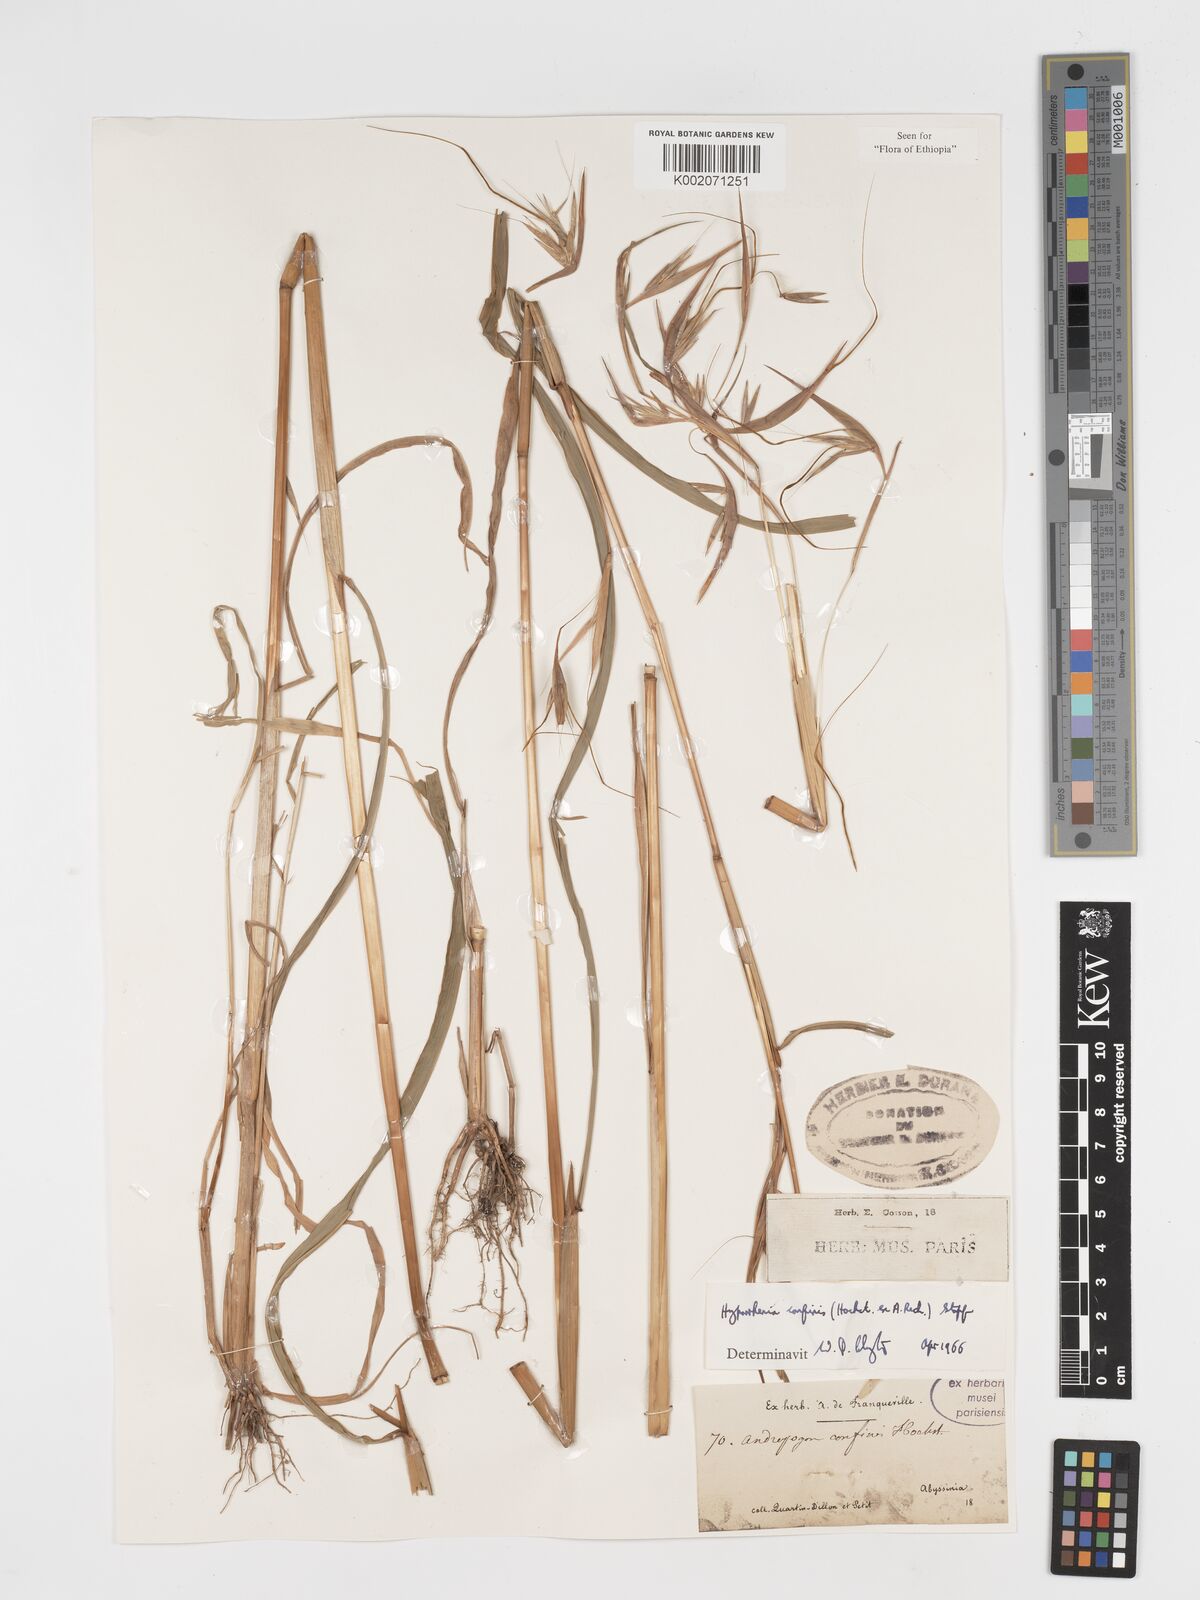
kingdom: Plantae
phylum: Tracheophyta
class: Liliopsida
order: Poales
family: Poaceae
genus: Hyparrhenia
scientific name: Hyparrhenia confinis
